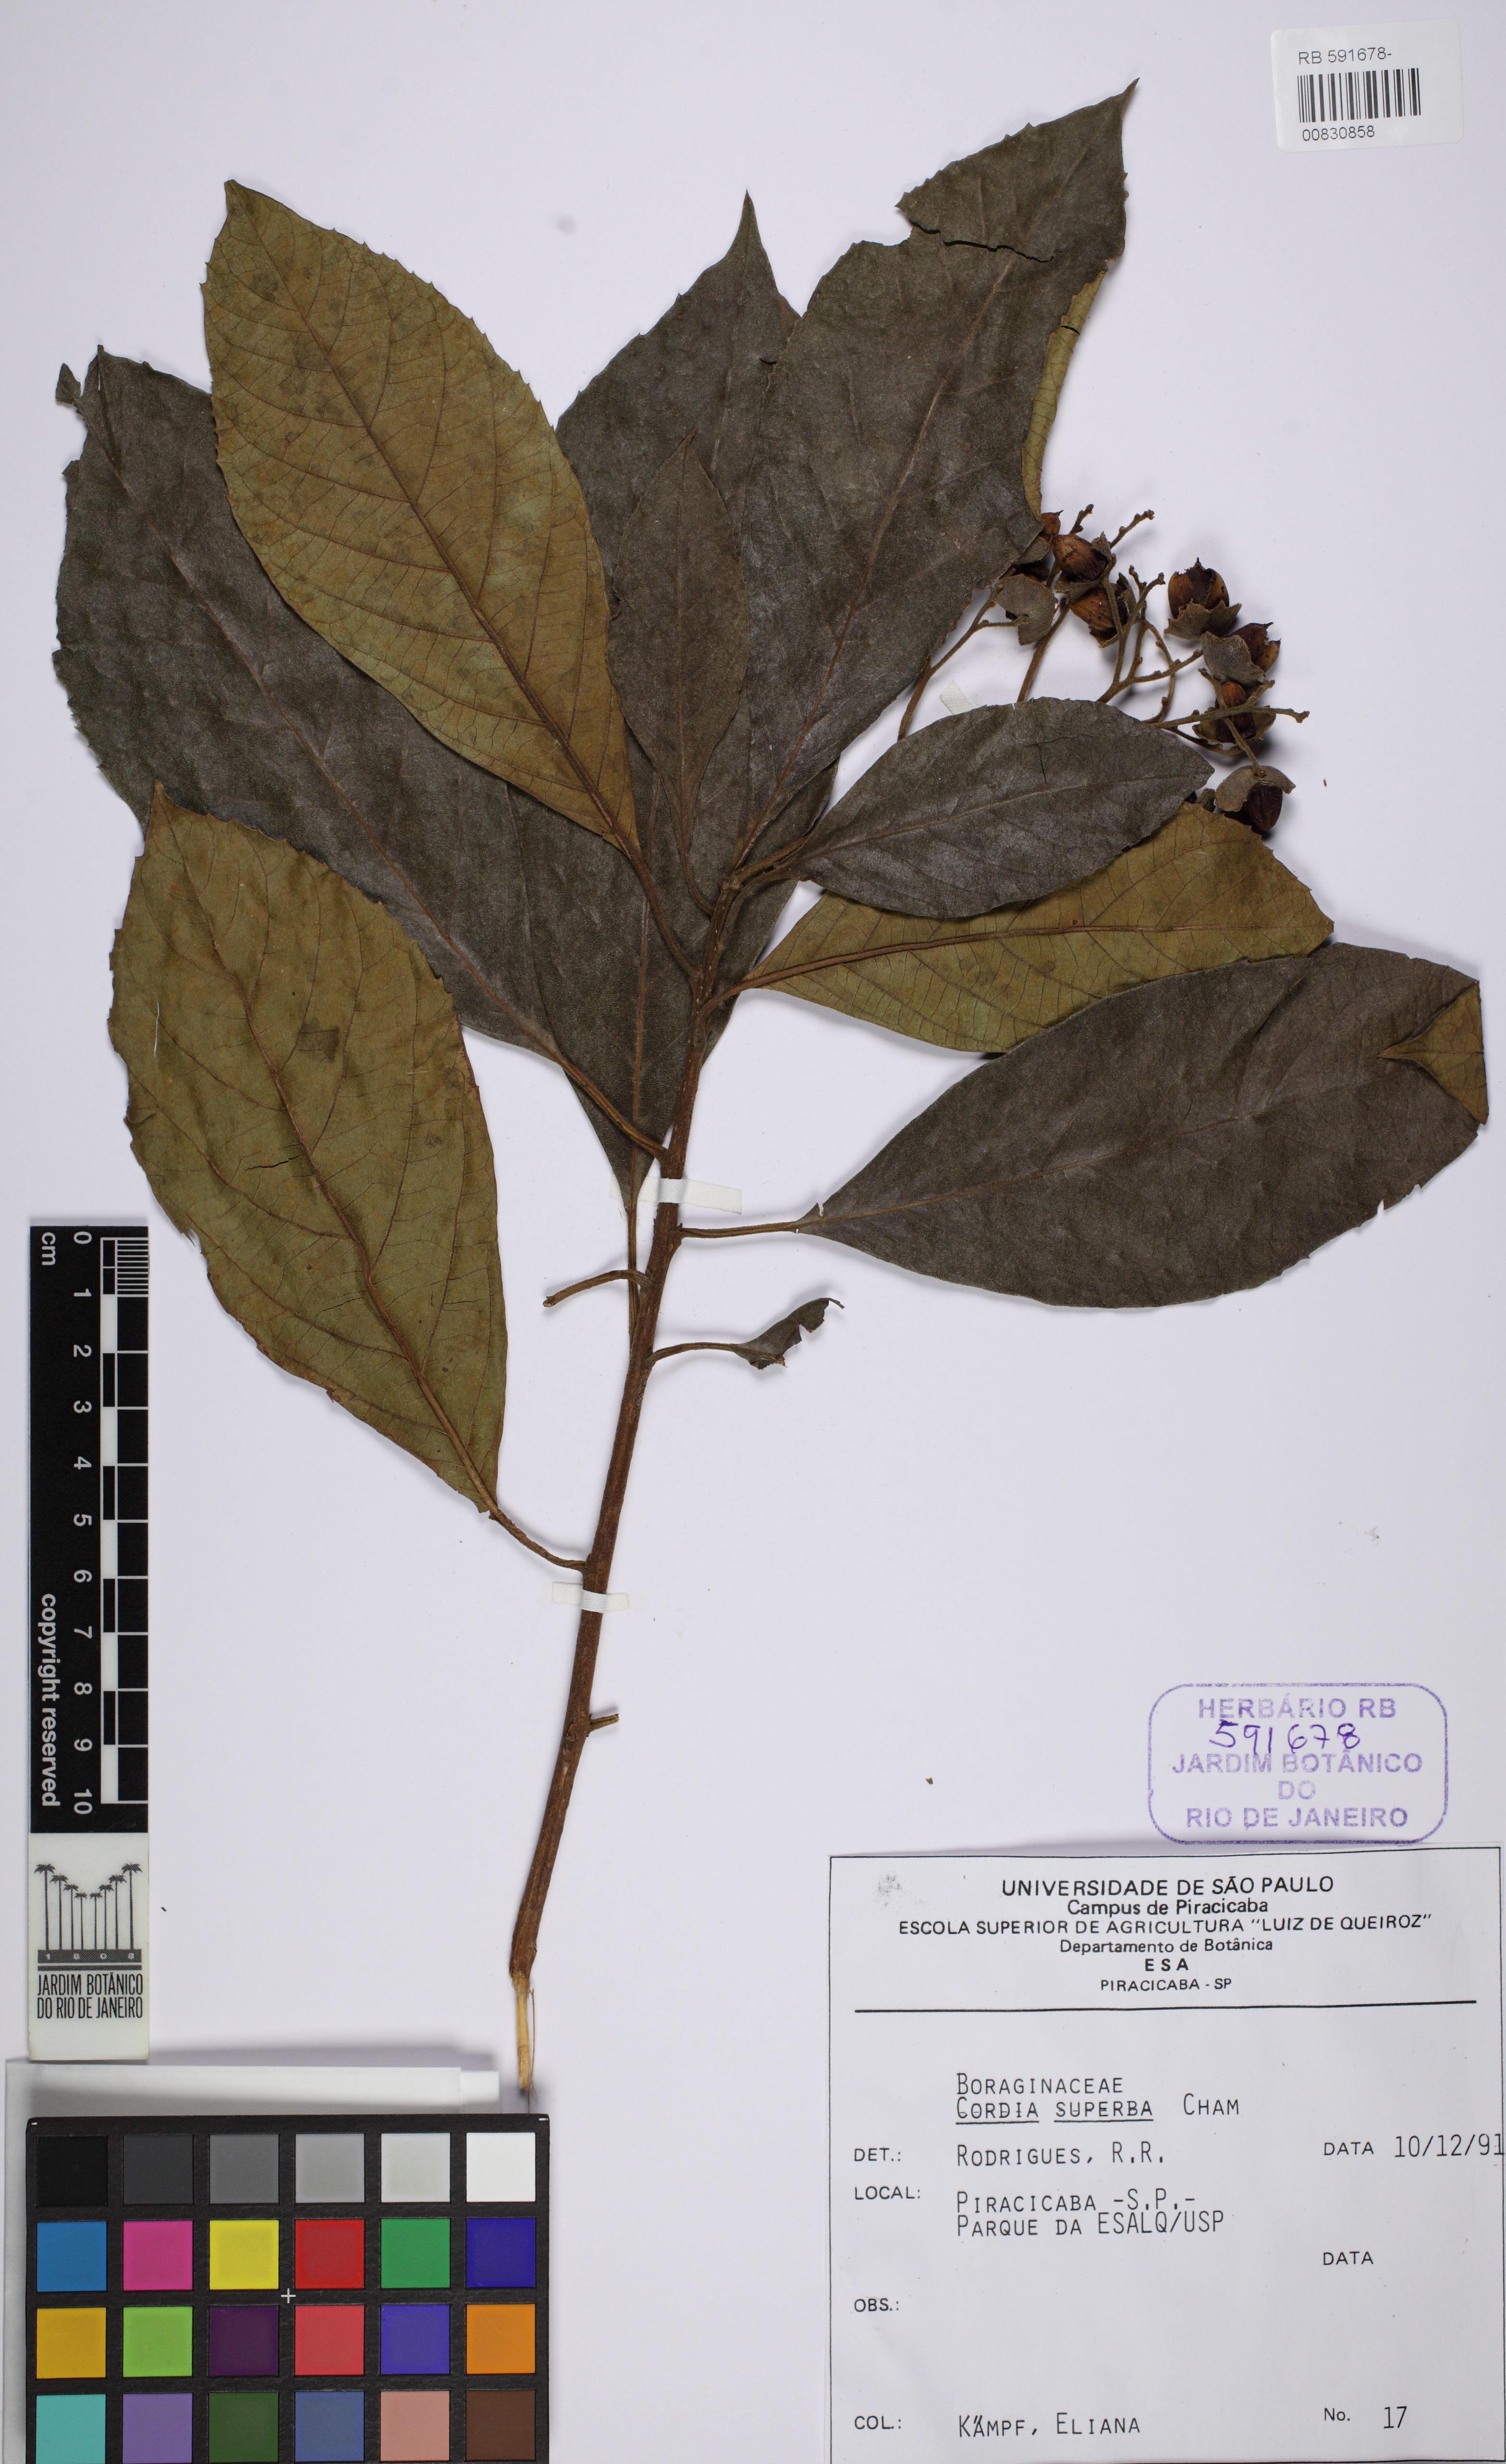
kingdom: Plantae
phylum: Tracheophyta
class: Magnoliopsida
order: Boraginales
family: Cordiaceae
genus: Cordia
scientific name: Cordia superba
